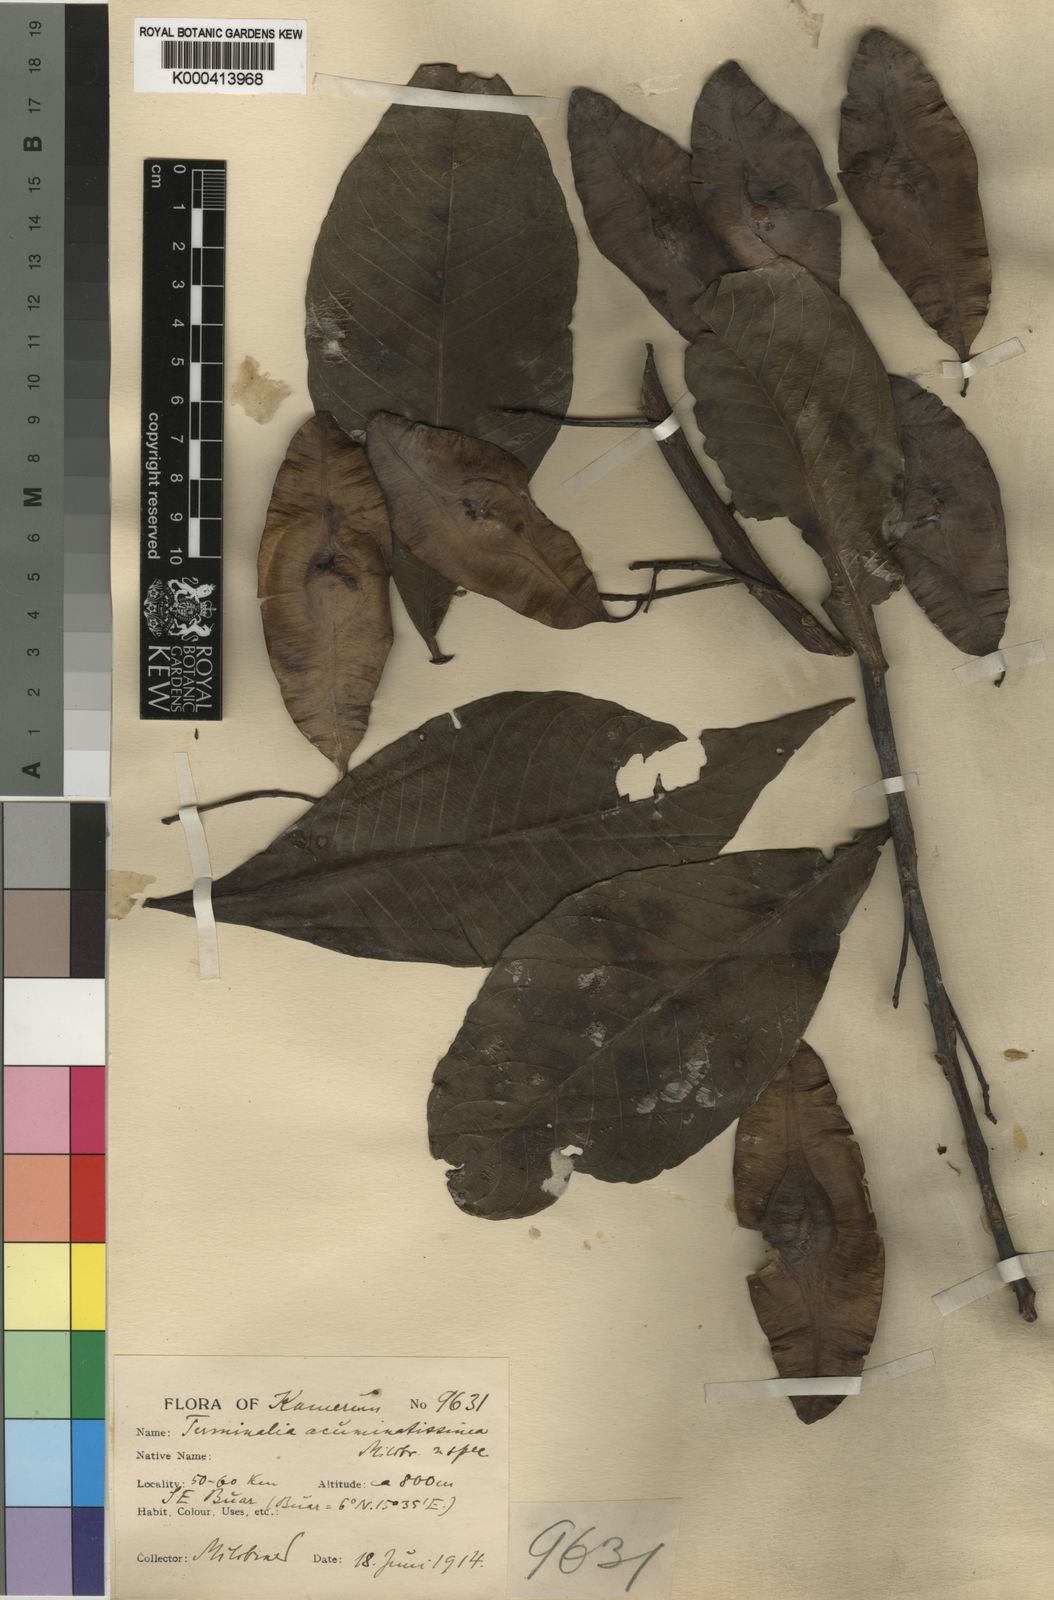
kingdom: Plantae
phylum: Tracheophyta
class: Magnoliopsida
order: Myrtales
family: Combretaceae
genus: Terminalia
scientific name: Terminalia macroptera
